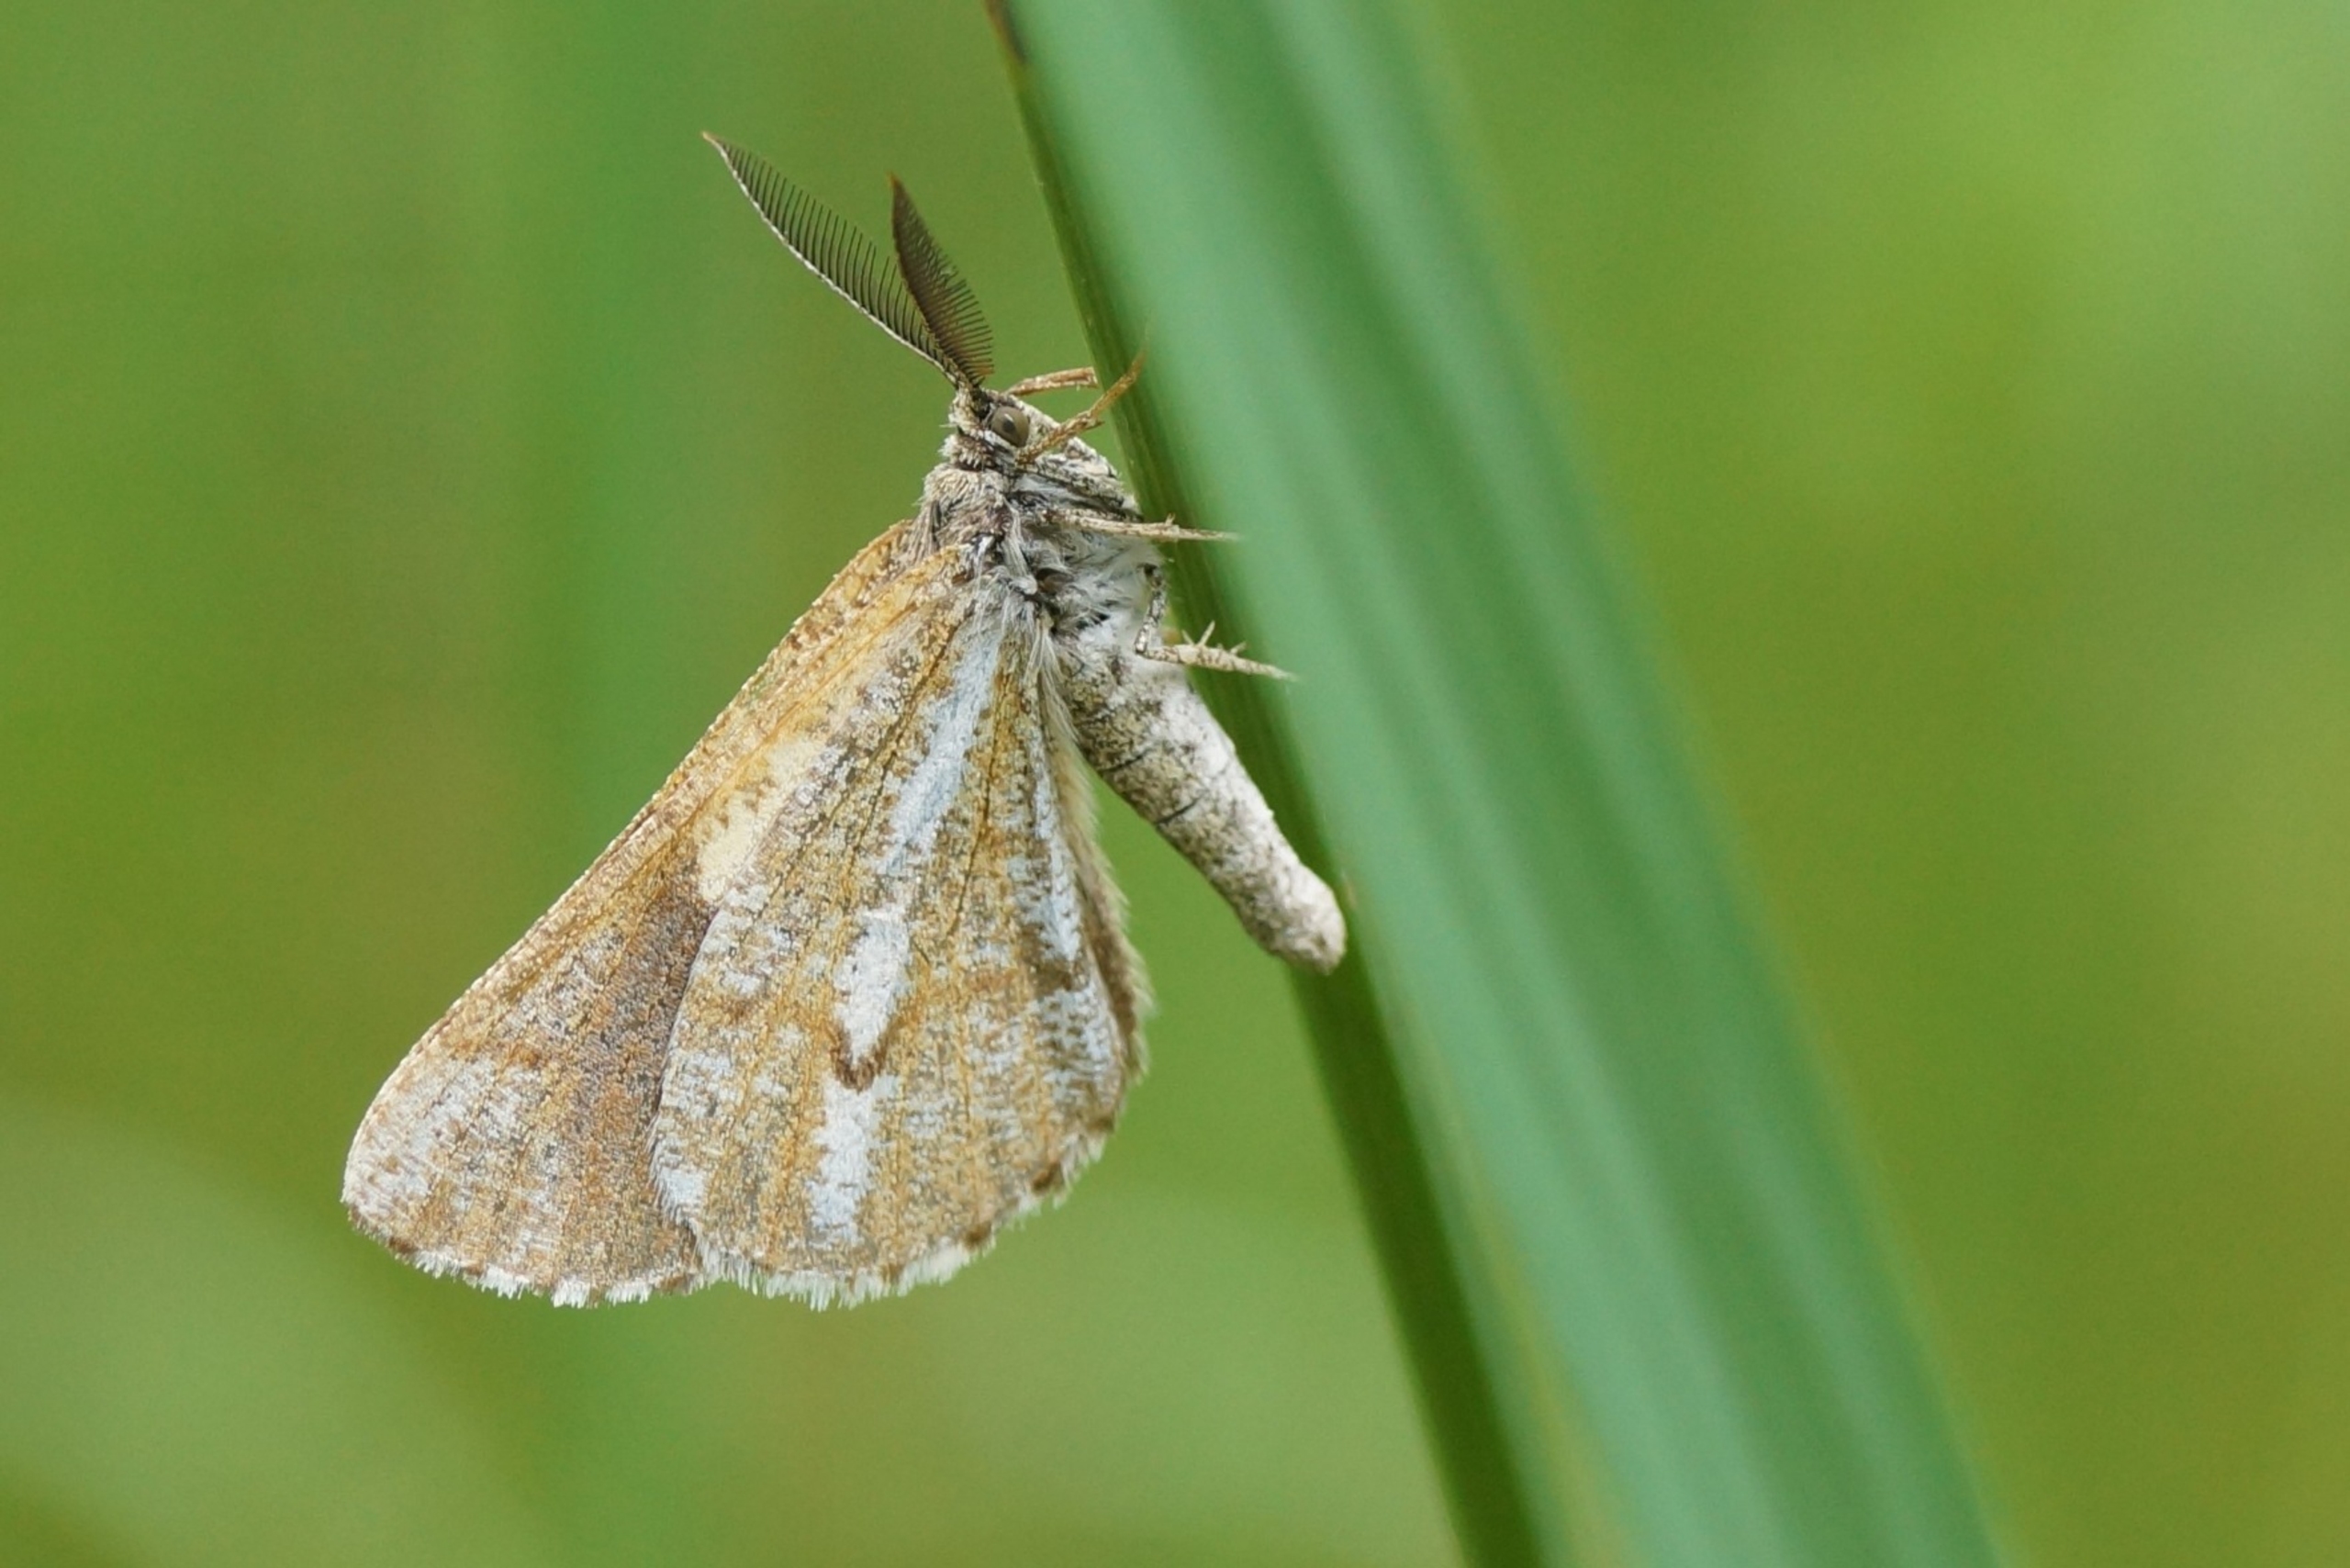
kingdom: Animalia
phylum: Arthropoda
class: Insecta
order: Lepidoptera
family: Geometridae
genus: Bupalus
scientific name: Bupalus piniaria
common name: Fyrremåler
